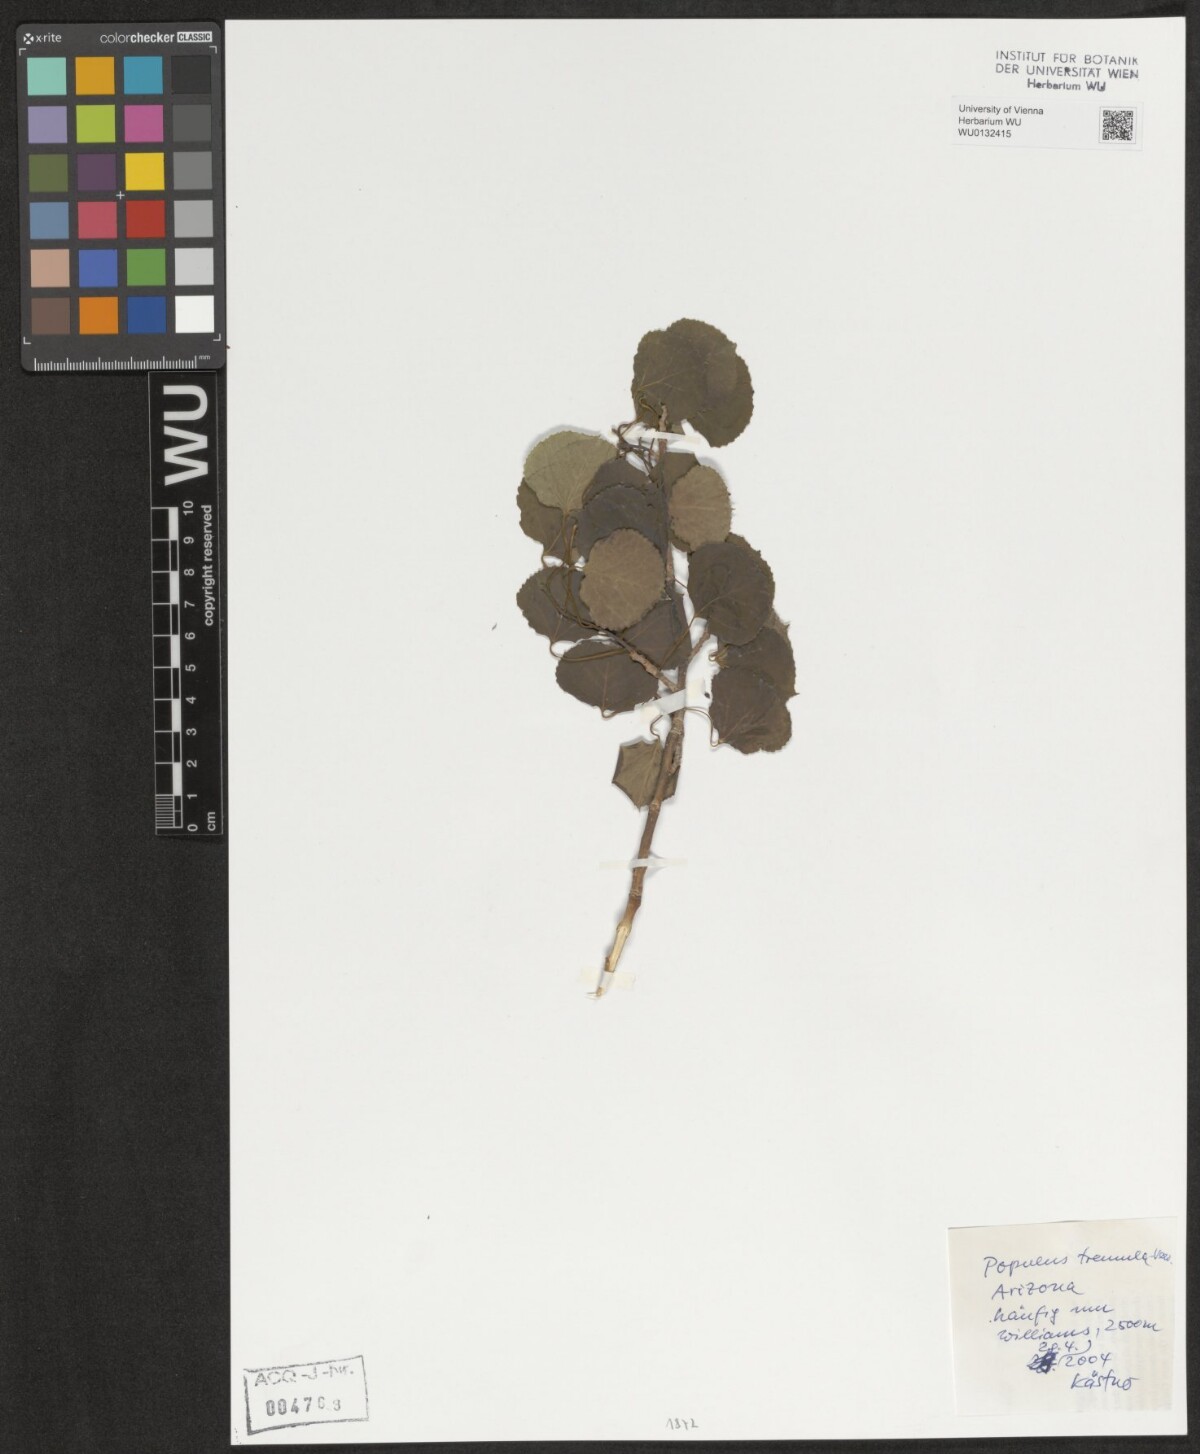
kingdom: Plantae
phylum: Tracheophyta
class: Magnoliopsida
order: Malpighiales
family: Salicaceae
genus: Populus
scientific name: Populus tremula
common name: European aspen
